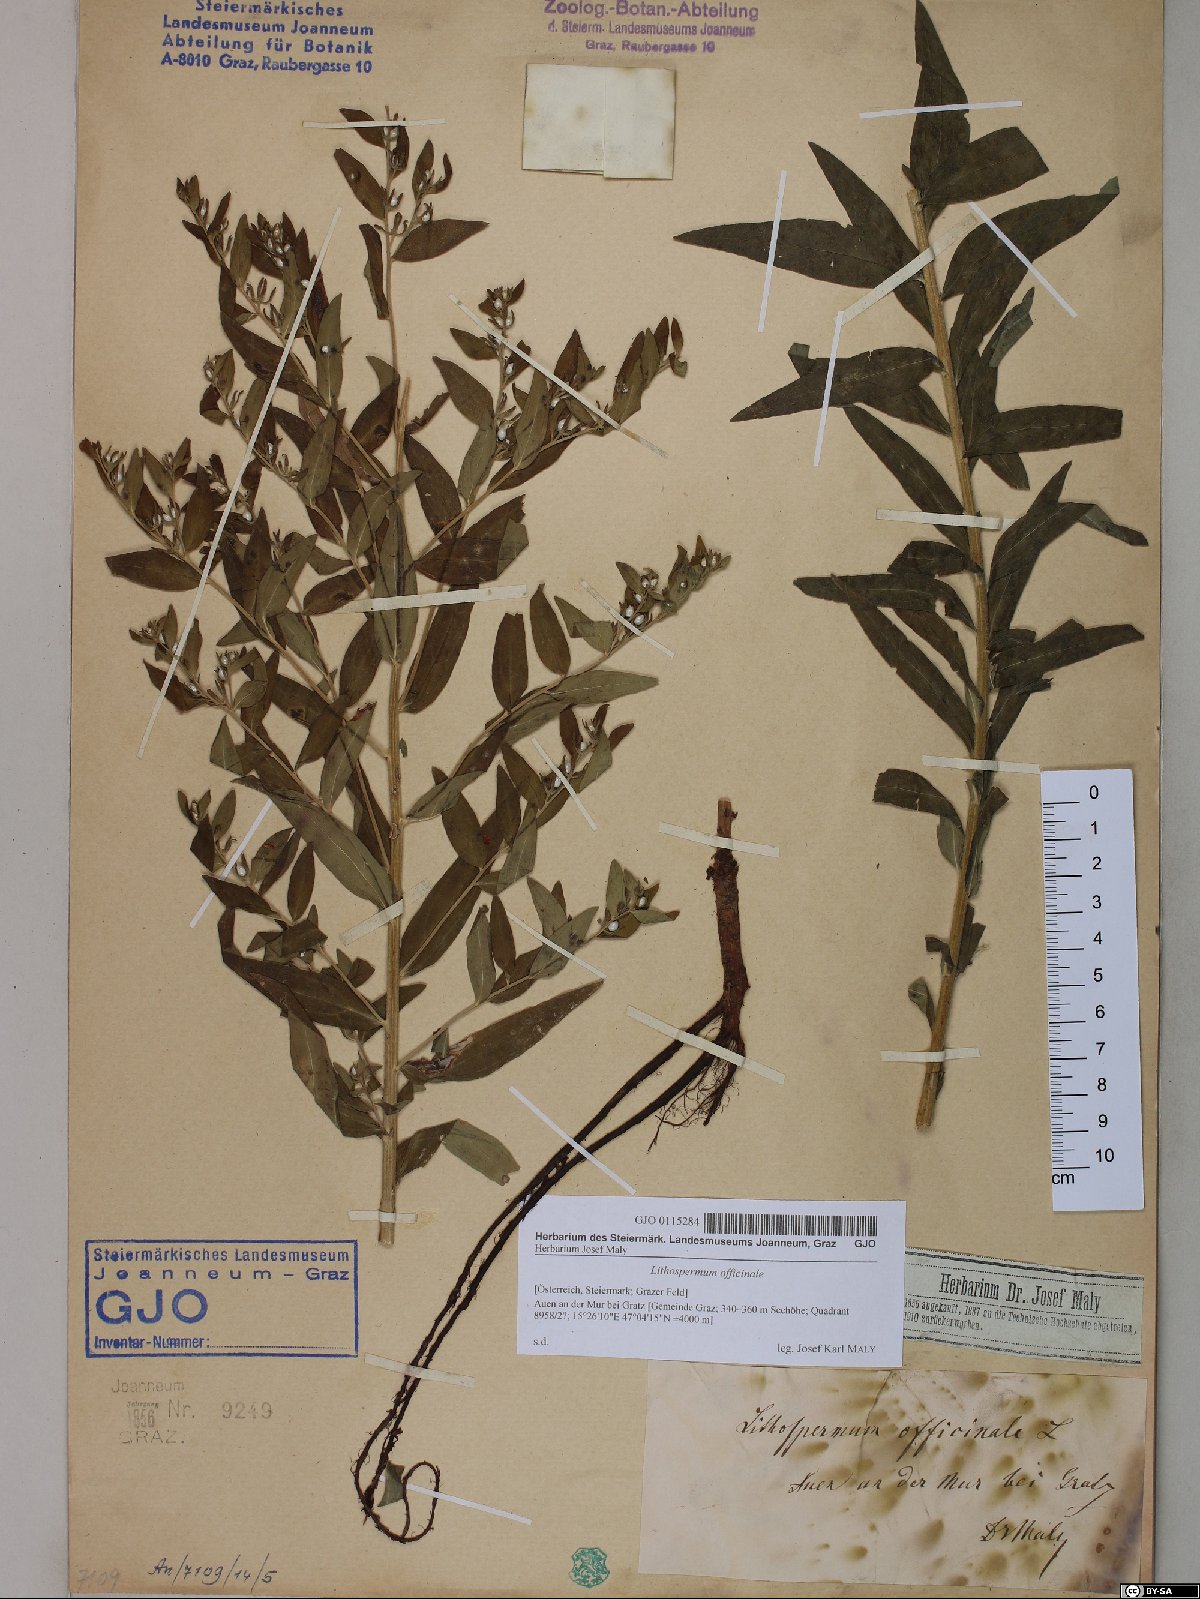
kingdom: Plantae
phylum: Tracheophyta
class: Magnoliopsida
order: Boraginales
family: Boraginaceae
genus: Lithospermum
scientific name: Lithospermum officinale
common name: Common gromwell
